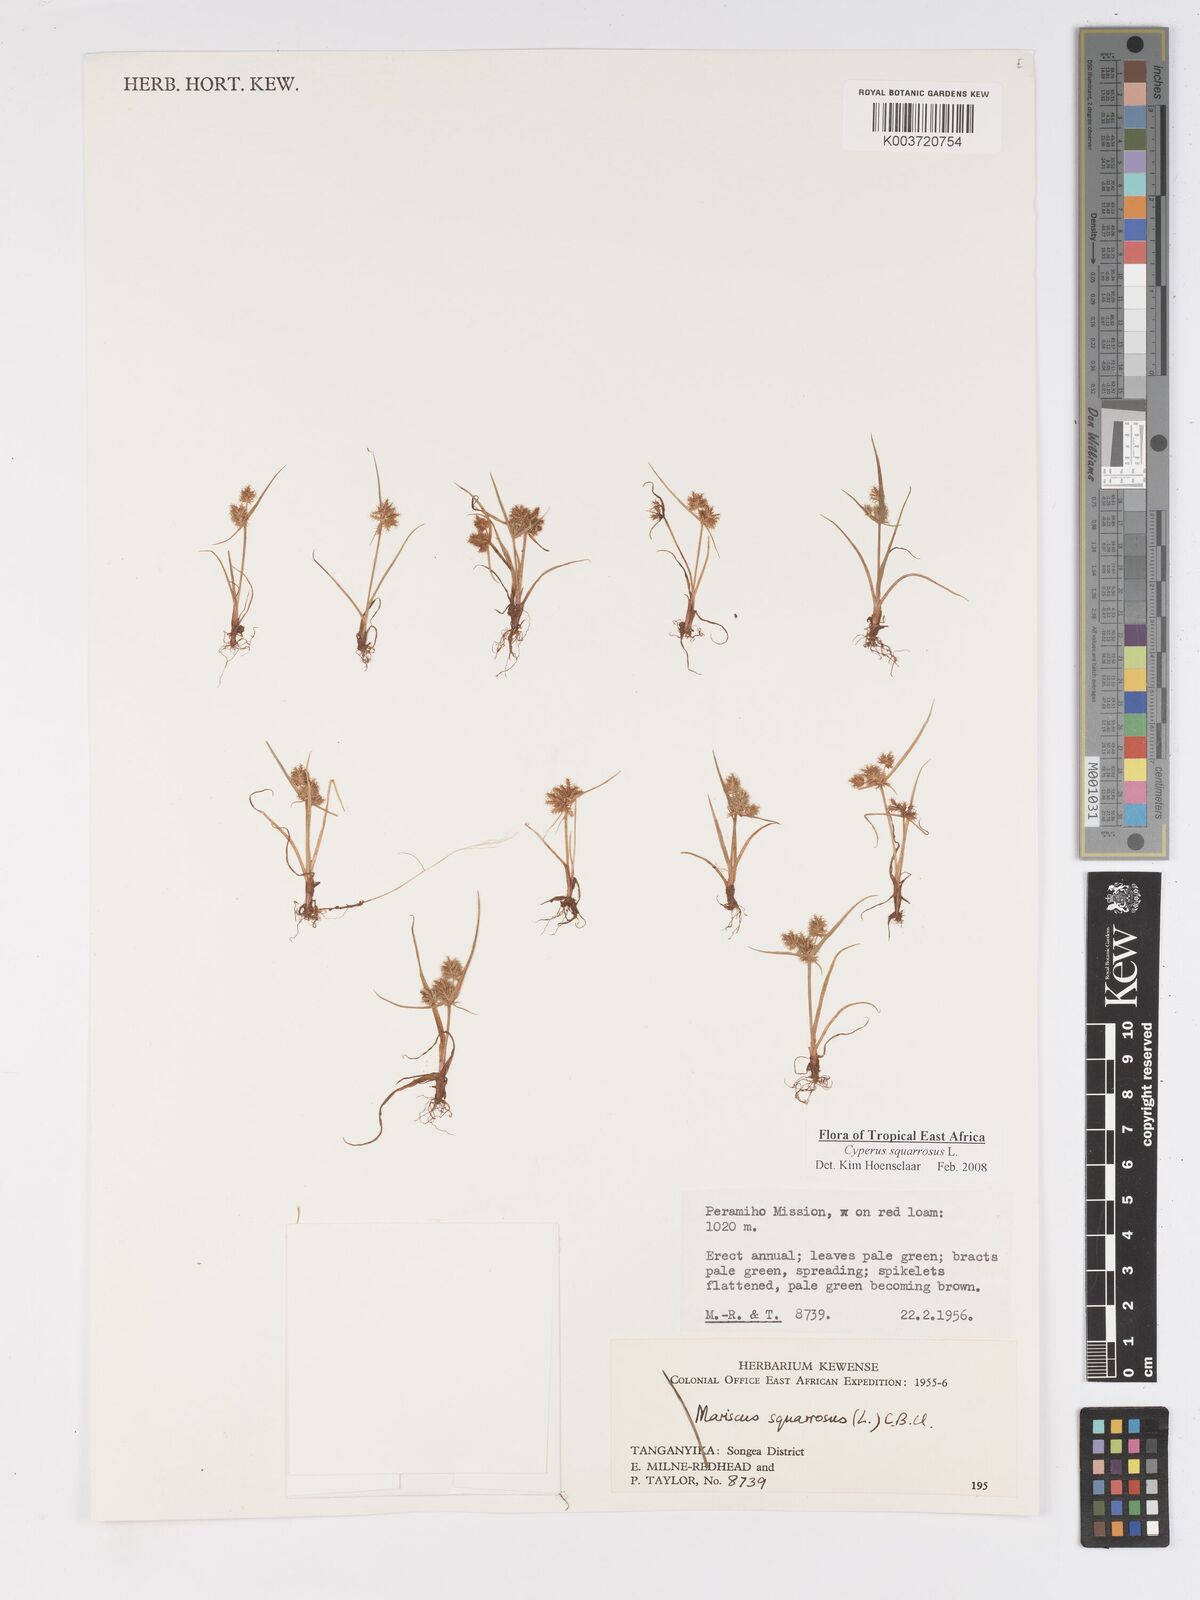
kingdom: Plantae
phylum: Tracheophyta
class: Liliopsida
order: Poales
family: Cyperaceae
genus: Cyperus
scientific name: Cyperus squarrosus
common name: Awned cyperus
